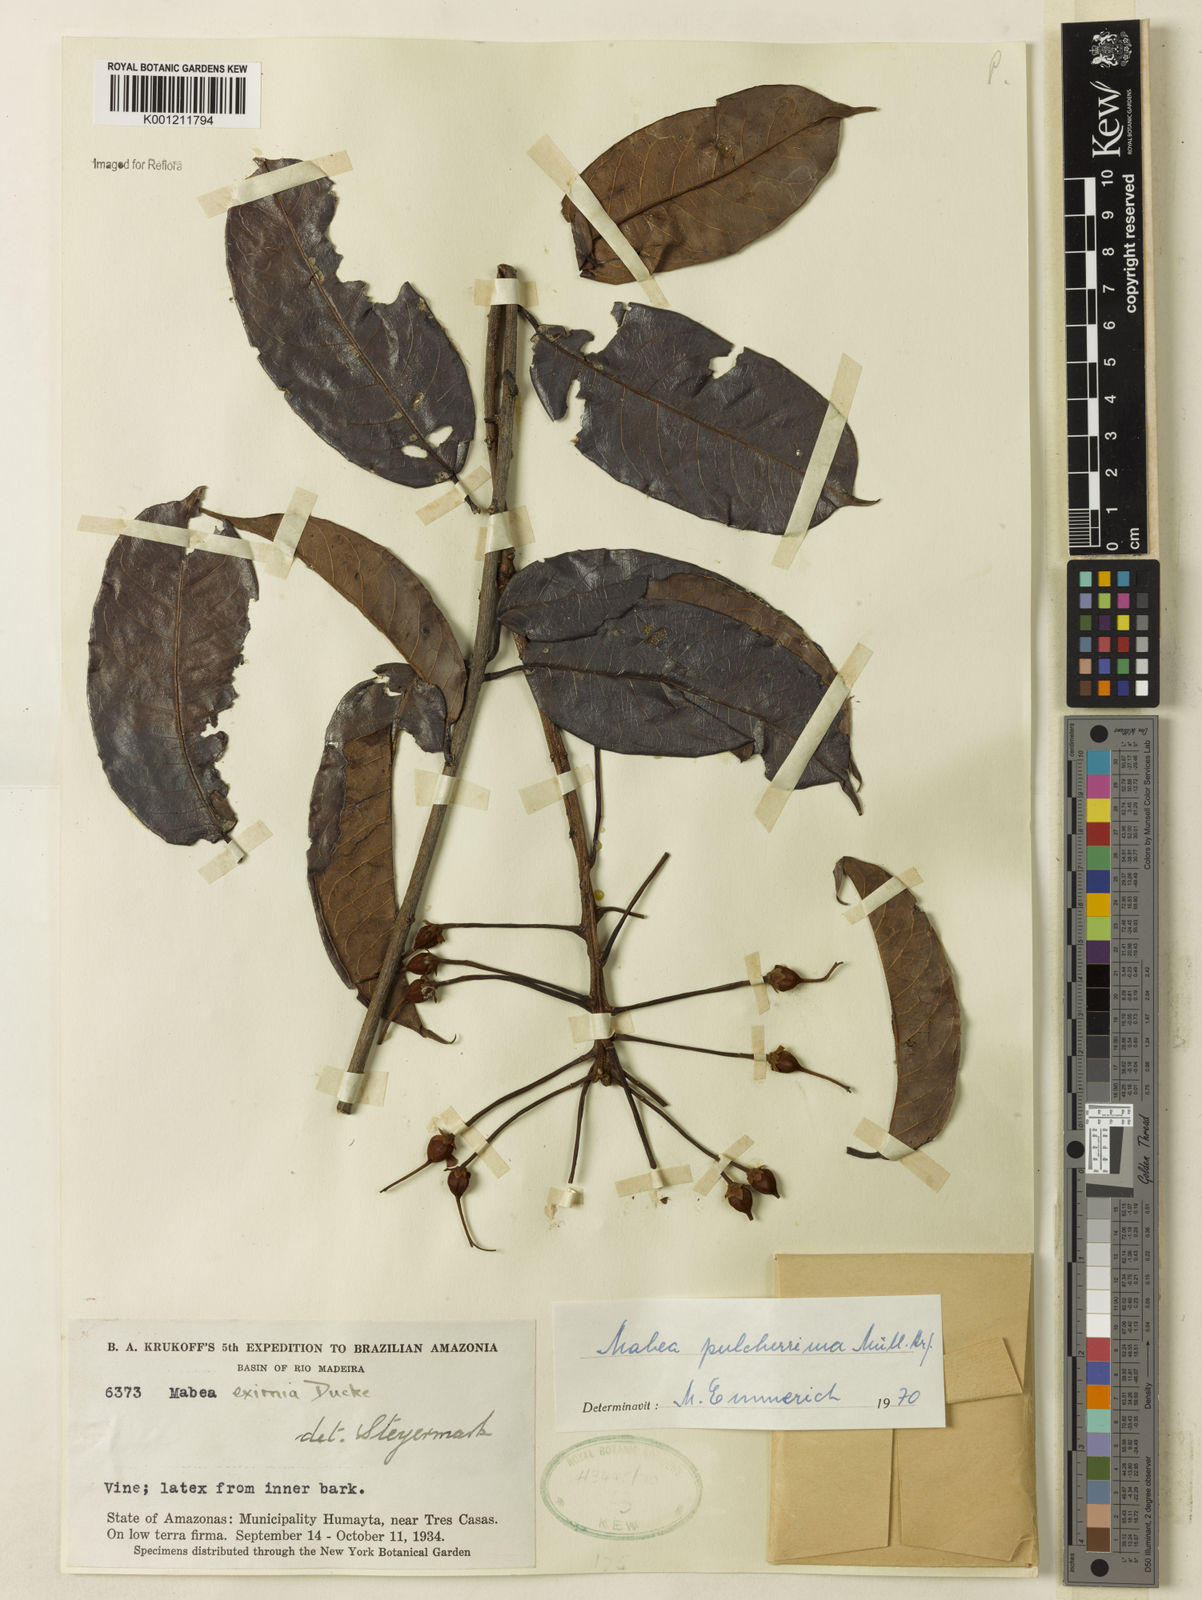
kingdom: Plantae
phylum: Tracheophyta
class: Magnoliopsida
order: Malpighiales
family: Euphorbiaceae
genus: Mabea
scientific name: Mabea
